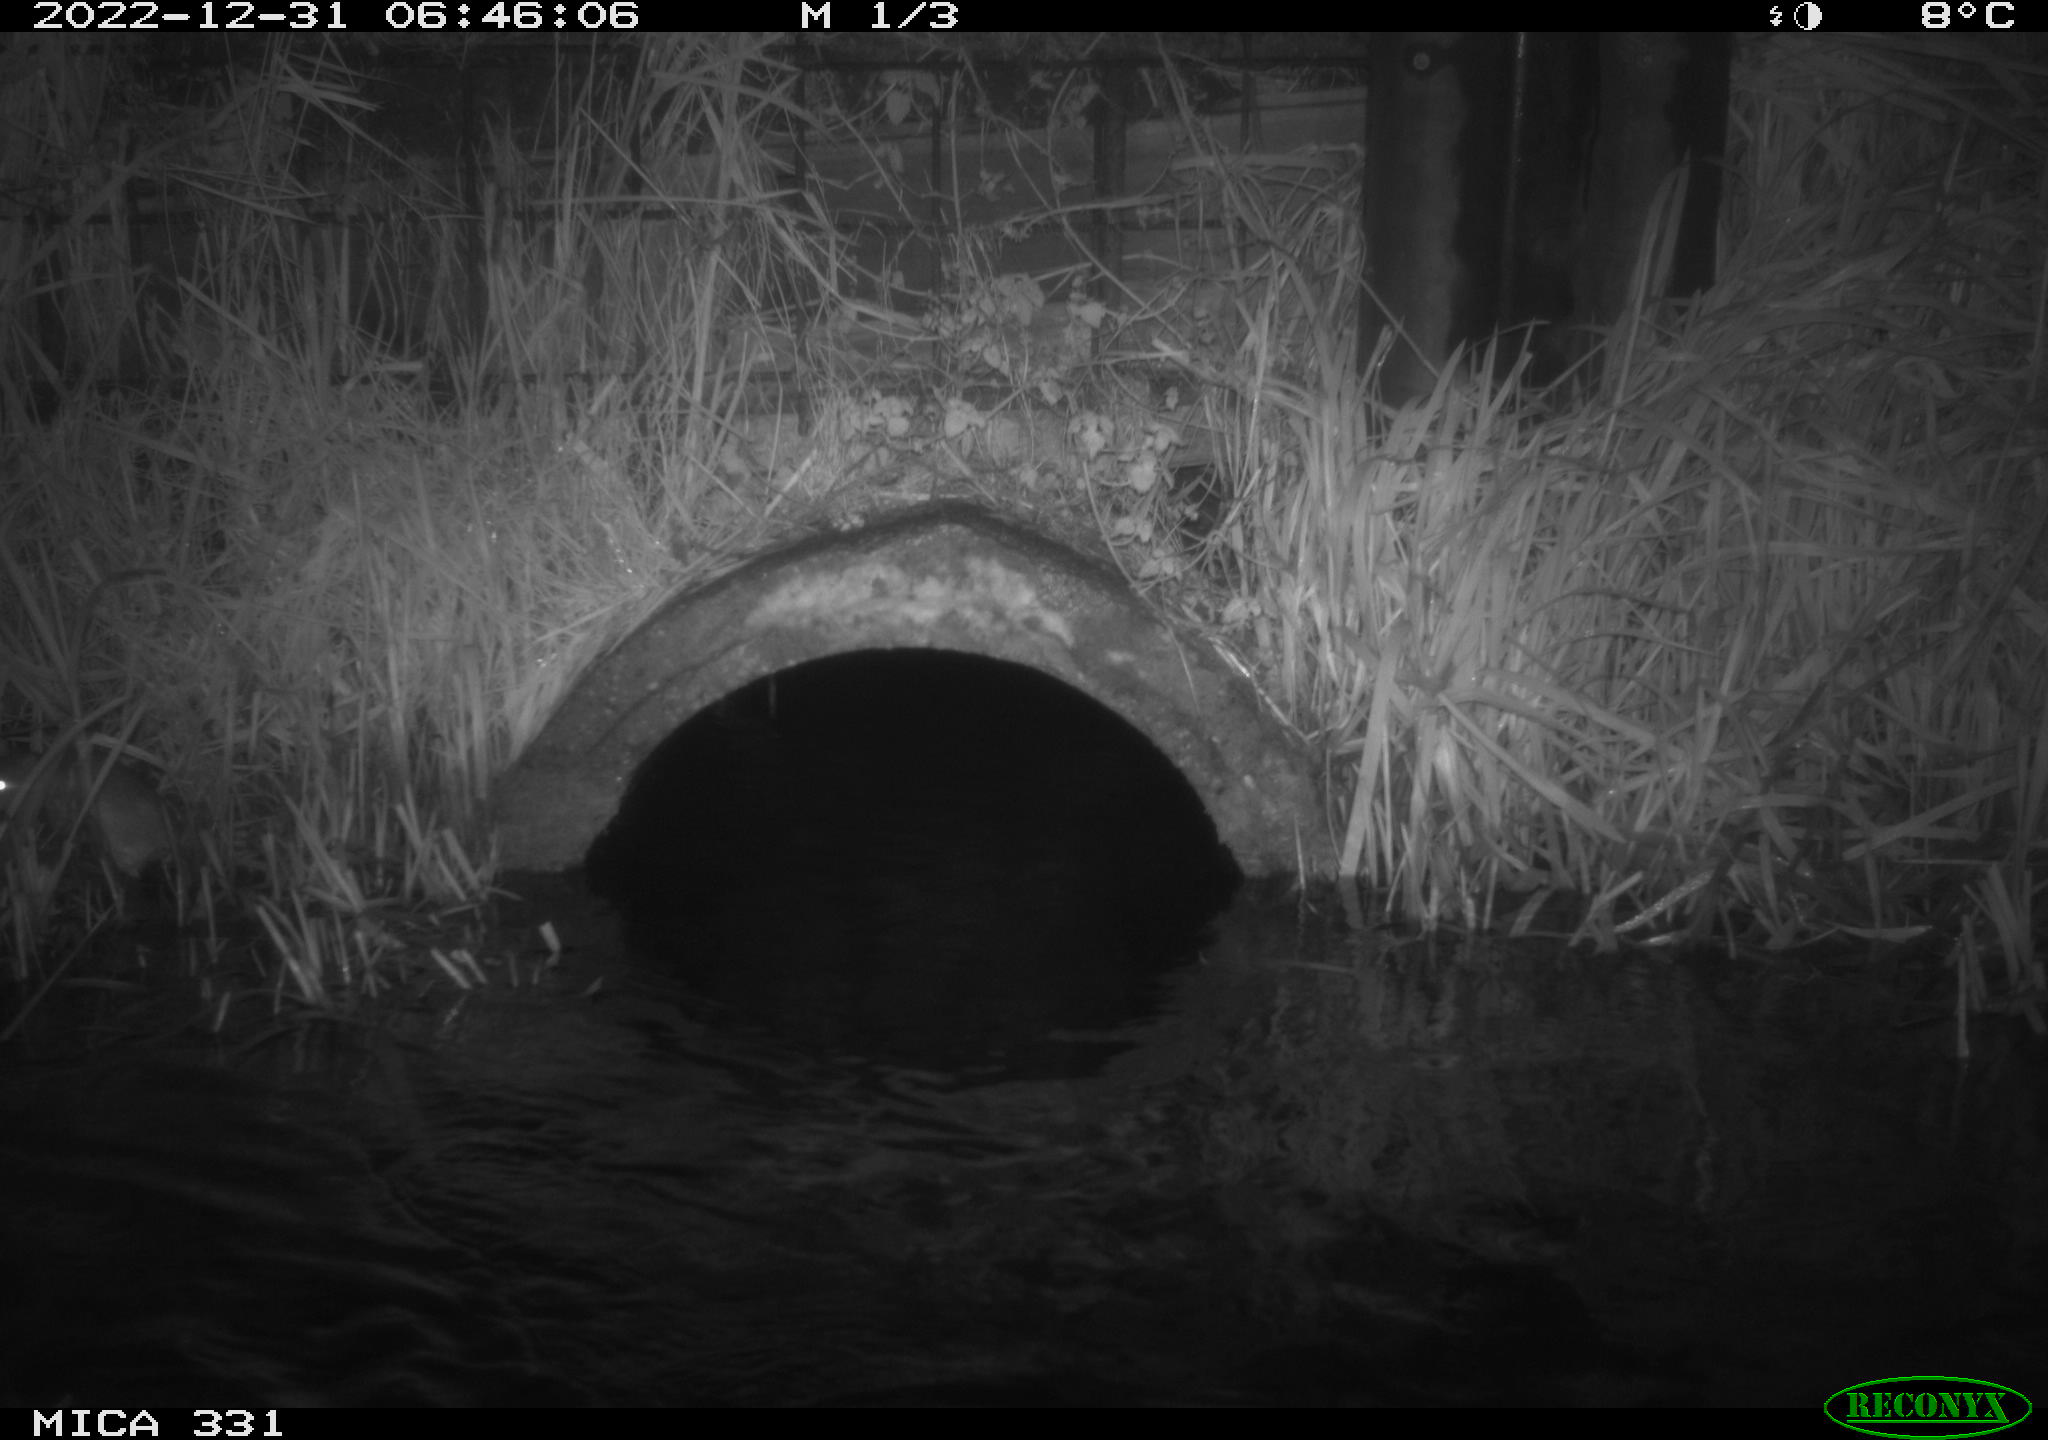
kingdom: Animalia
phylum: Chordata
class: Mammalia
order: Rodentia
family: Muridae
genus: Rattus
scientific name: Rattus norvegicus
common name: Brown rat
